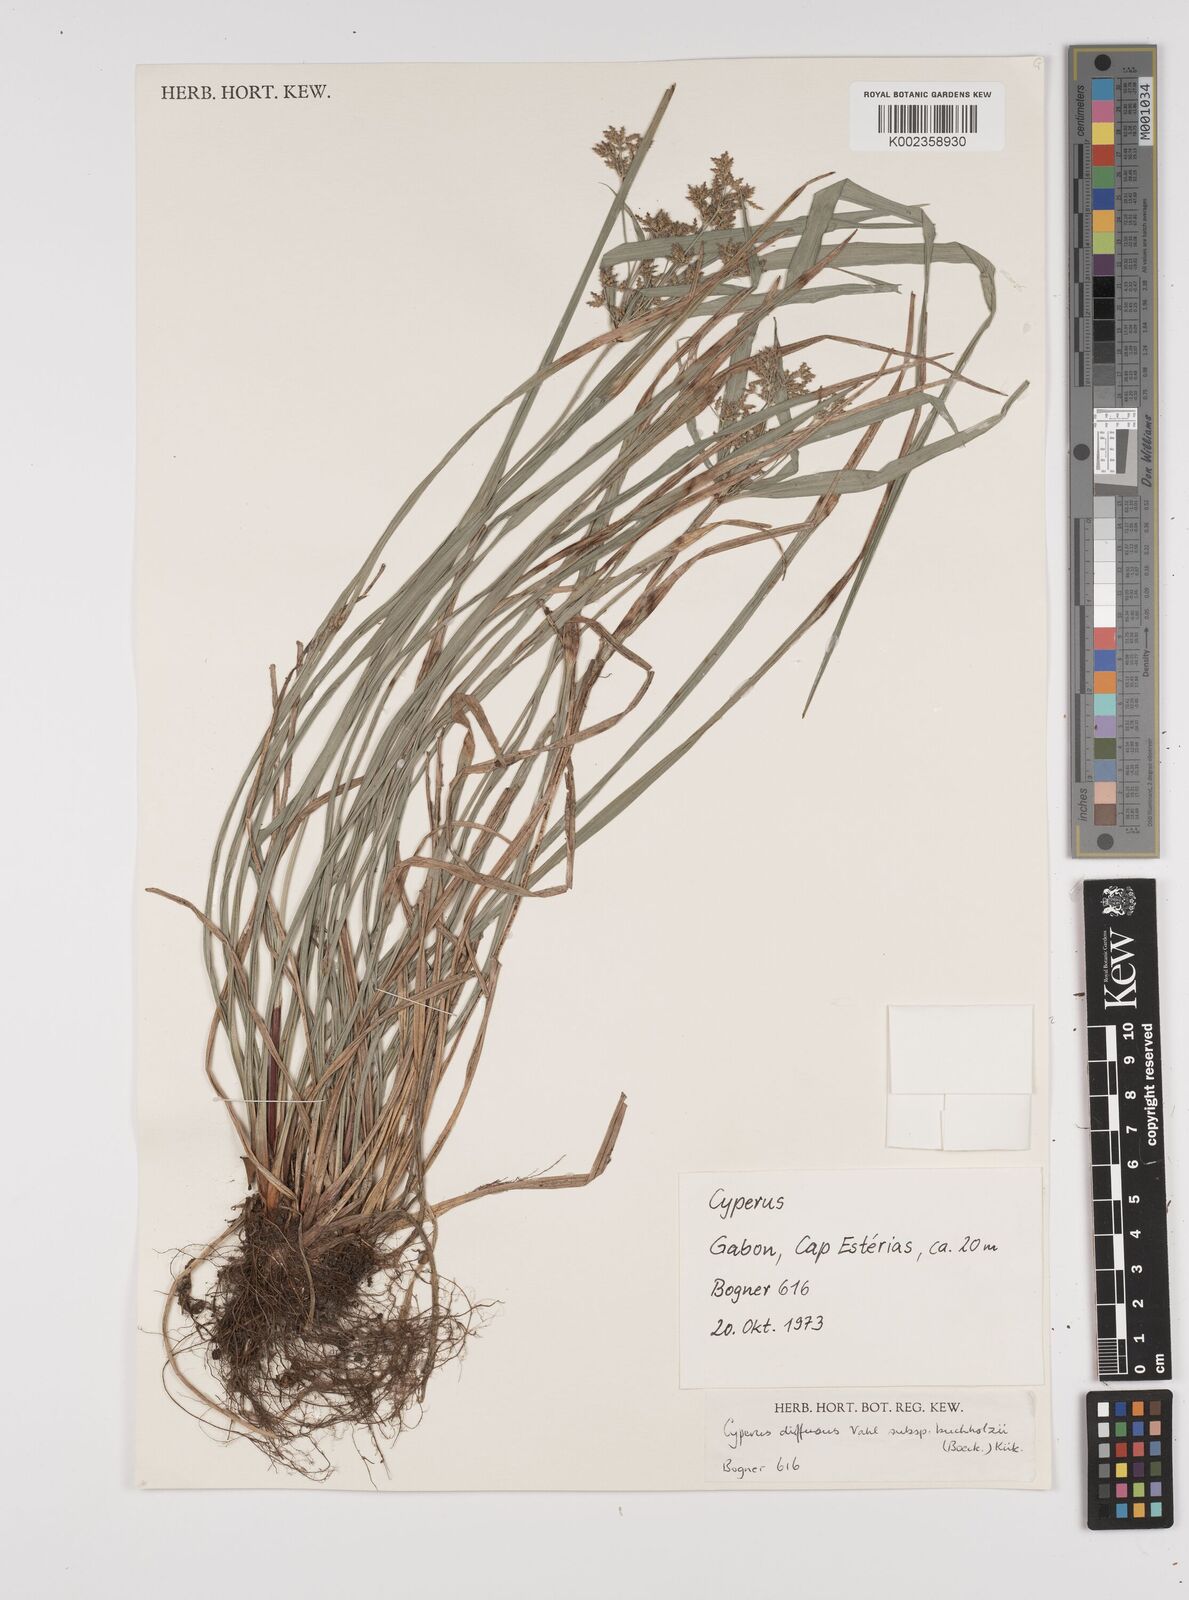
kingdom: Plantae
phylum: Tracheophyta
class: Liliopsida
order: Poales
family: Cyperaceae
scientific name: Cyperaceae
